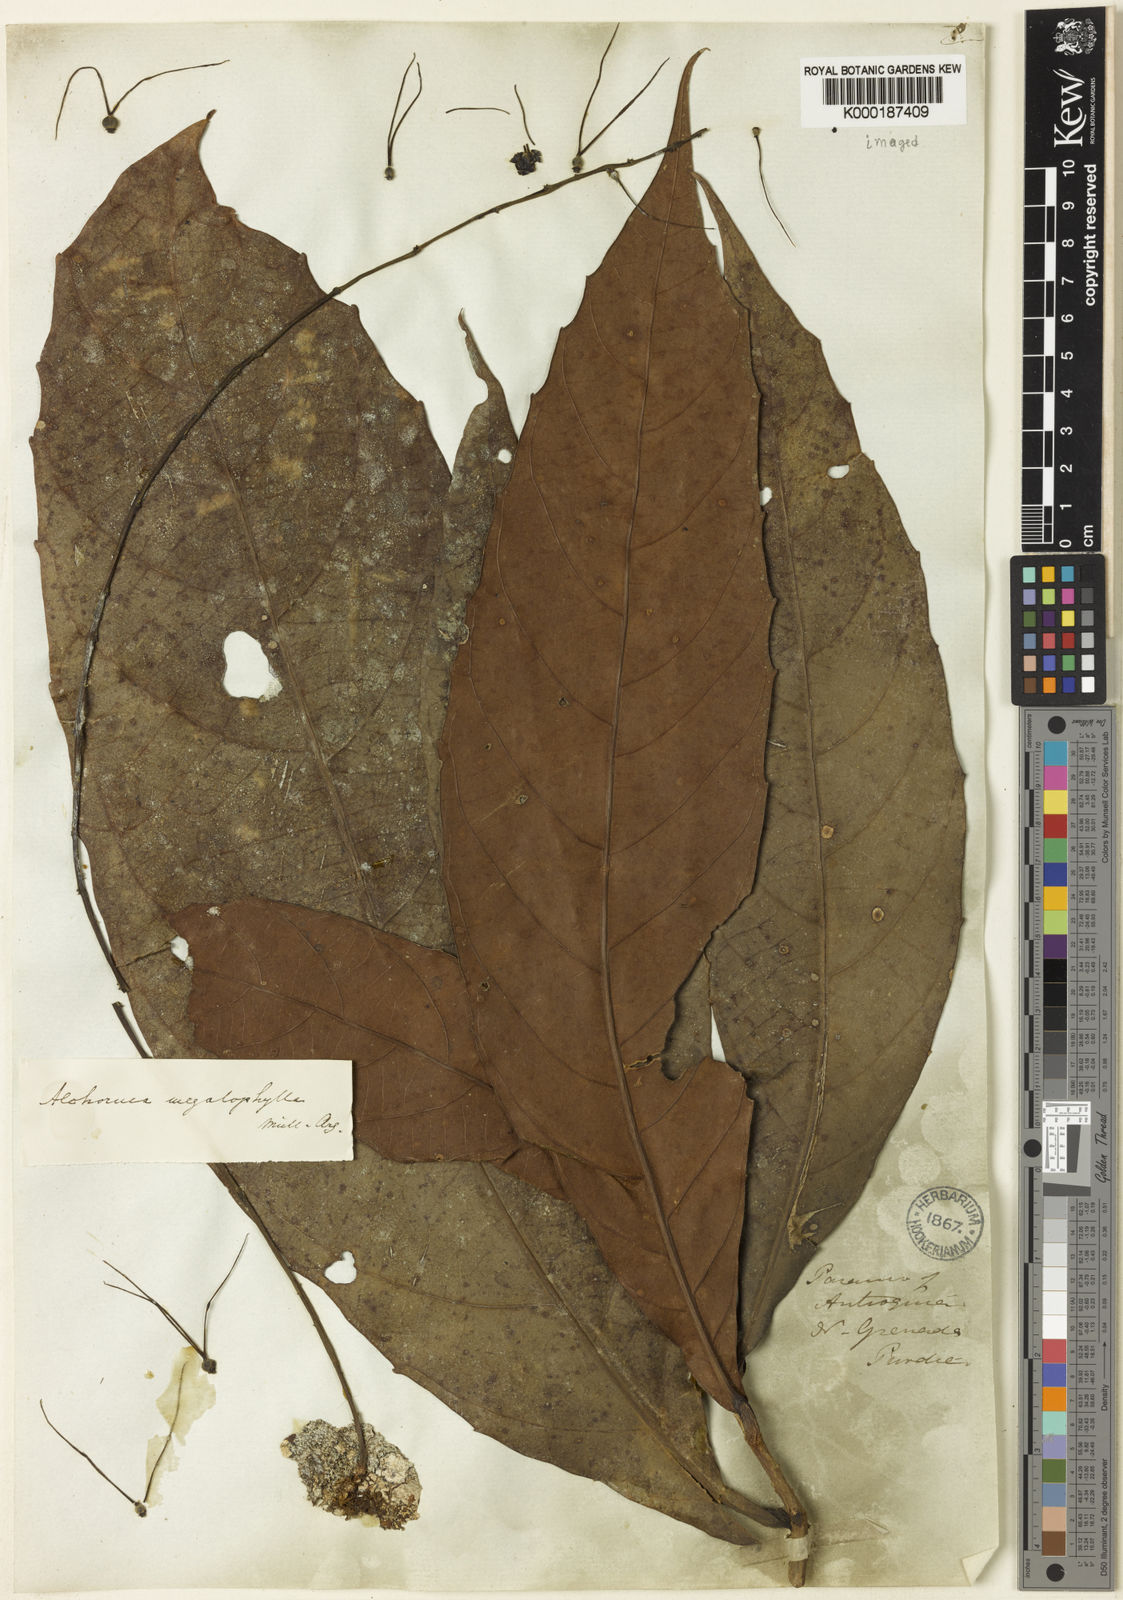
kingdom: Plantae
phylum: Tracheophyta
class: Magnoliopsida
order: Malpighiales
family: Euphorbiaceae
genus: Alchornea
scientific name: Alchornea
